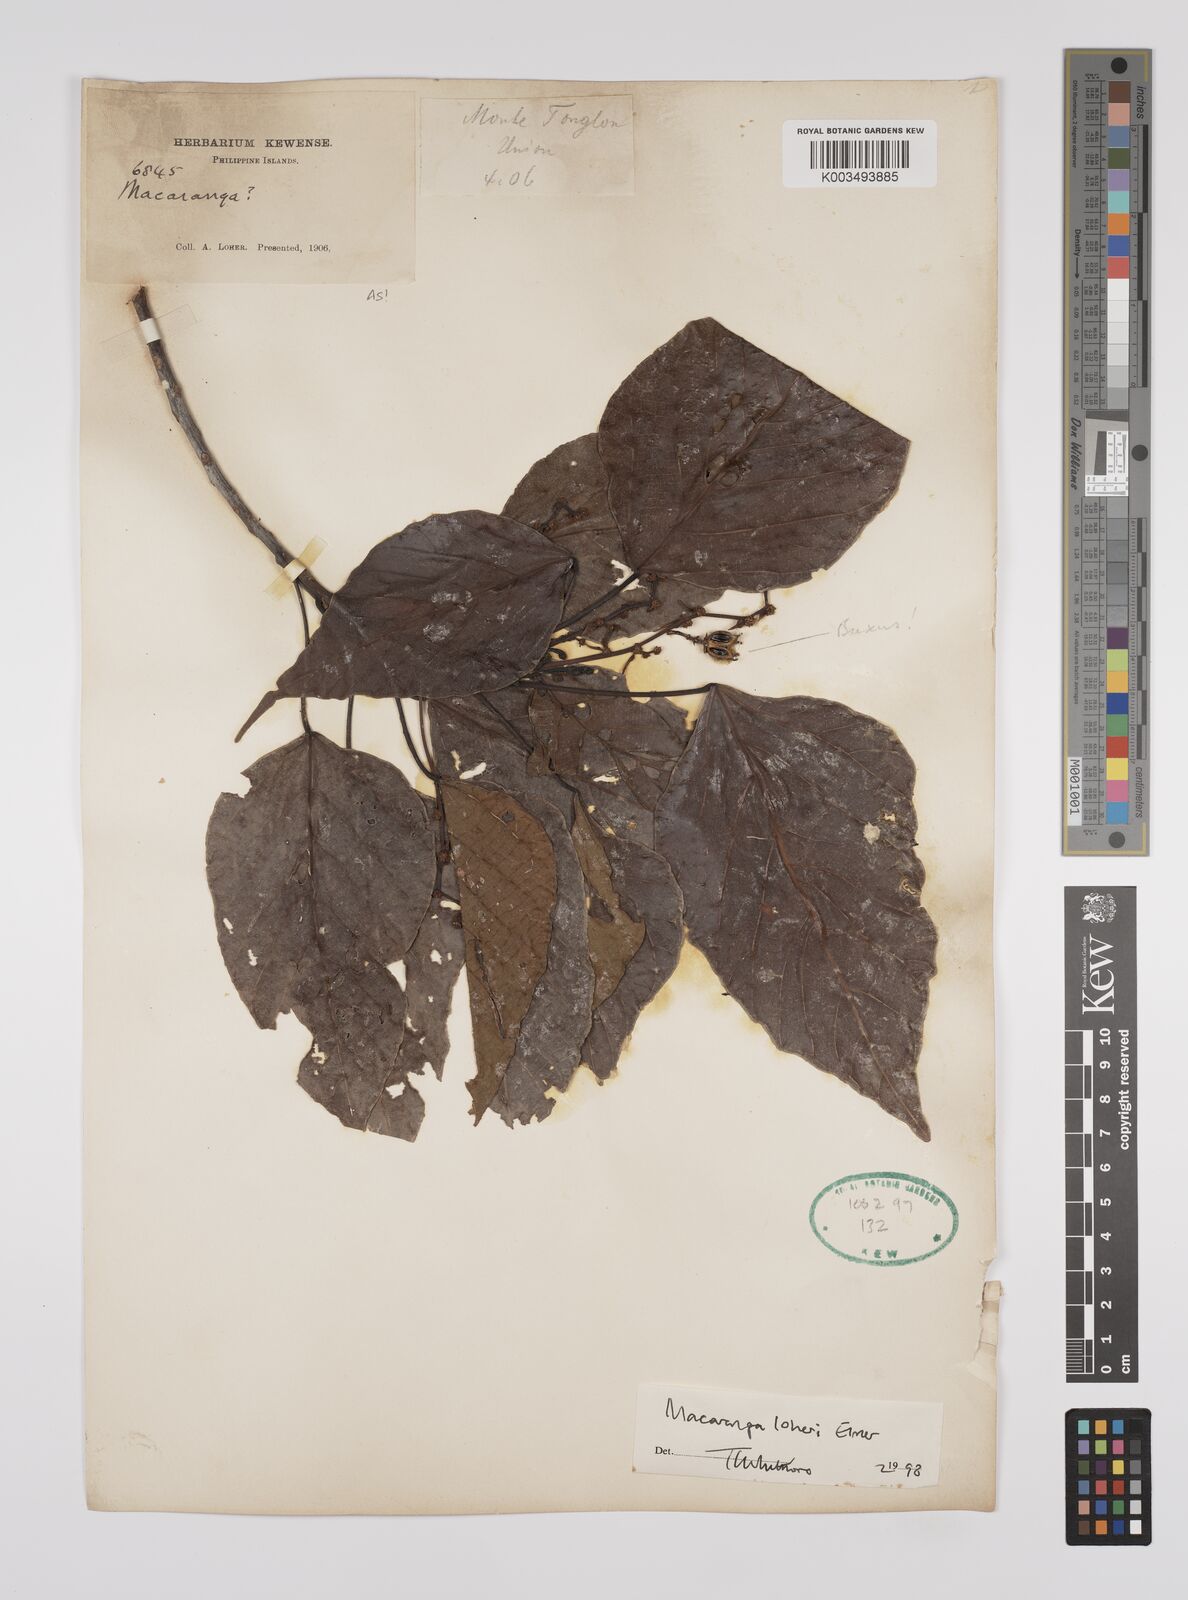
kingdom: Plantae
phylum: Tracheophyta
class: Magnoliopsida
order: Malpighiales
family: Euphorbiaceae
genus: Macaranga
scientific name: Macaranga loheri
